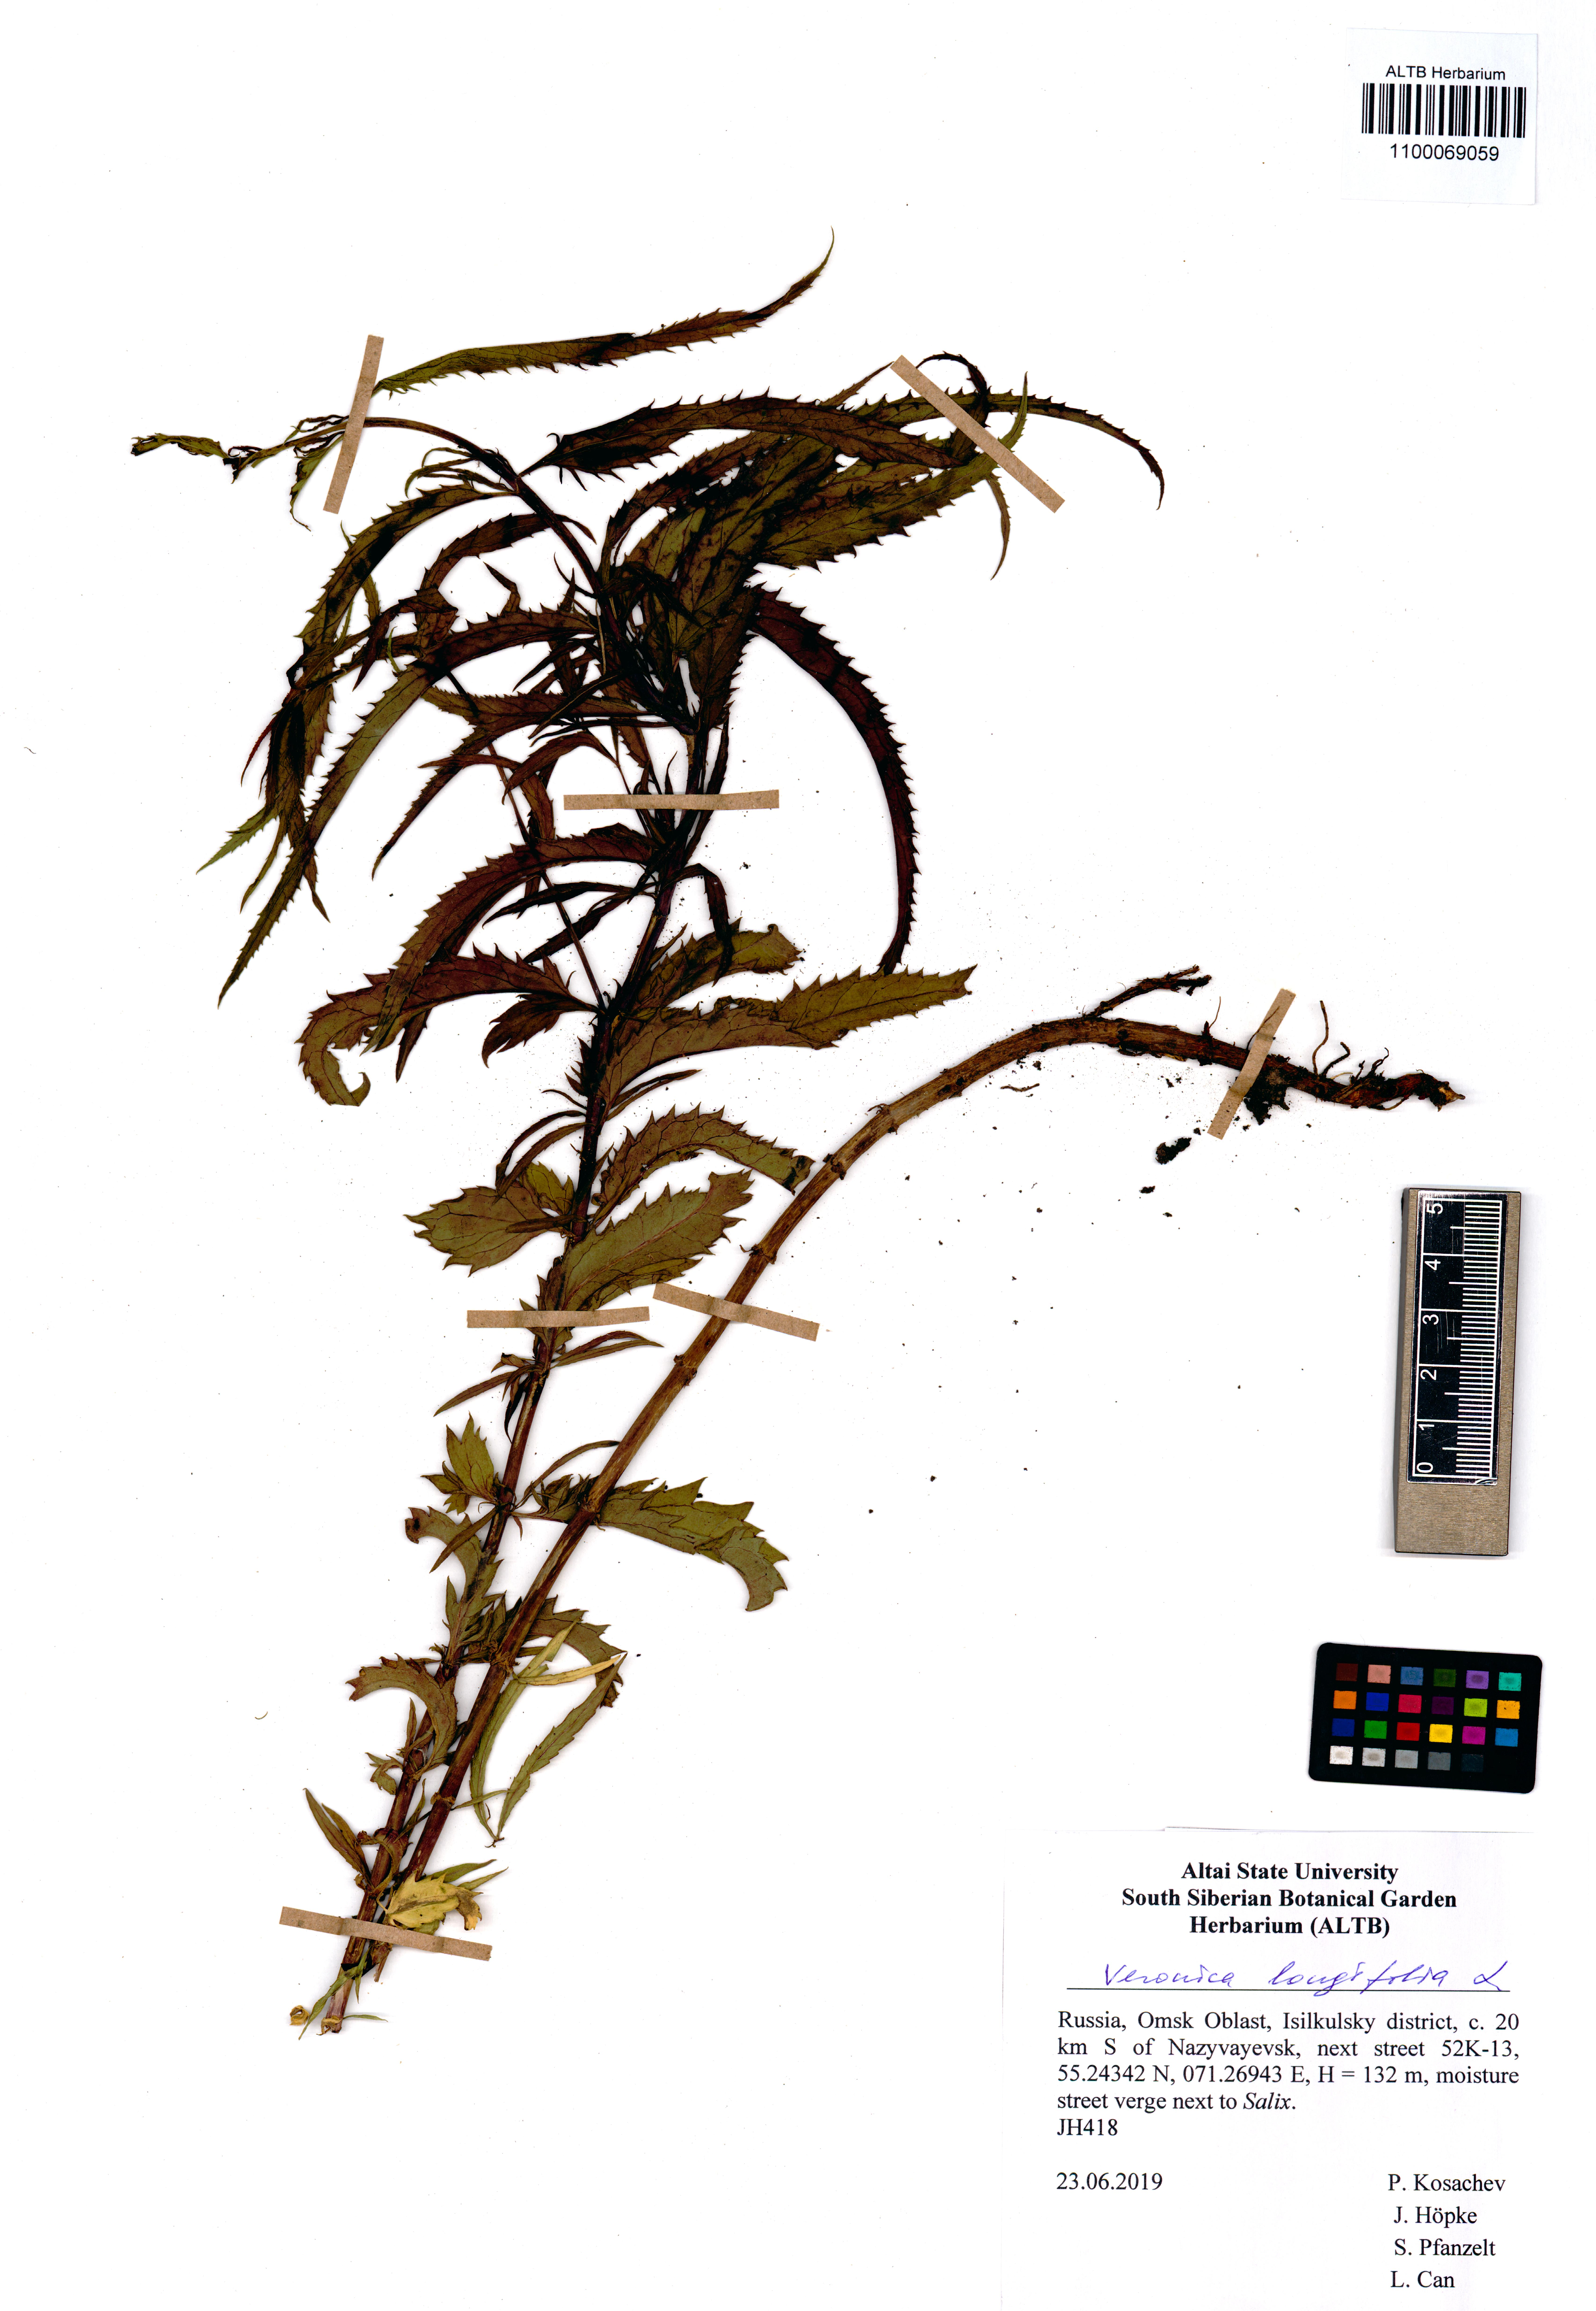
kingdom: Plantae
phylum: Tracheophyta
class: Magnoliopsida
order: Lamiales
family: Plantaginaceae
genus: Veronica
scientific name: Veronica longifolia
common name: Garden speedwell
